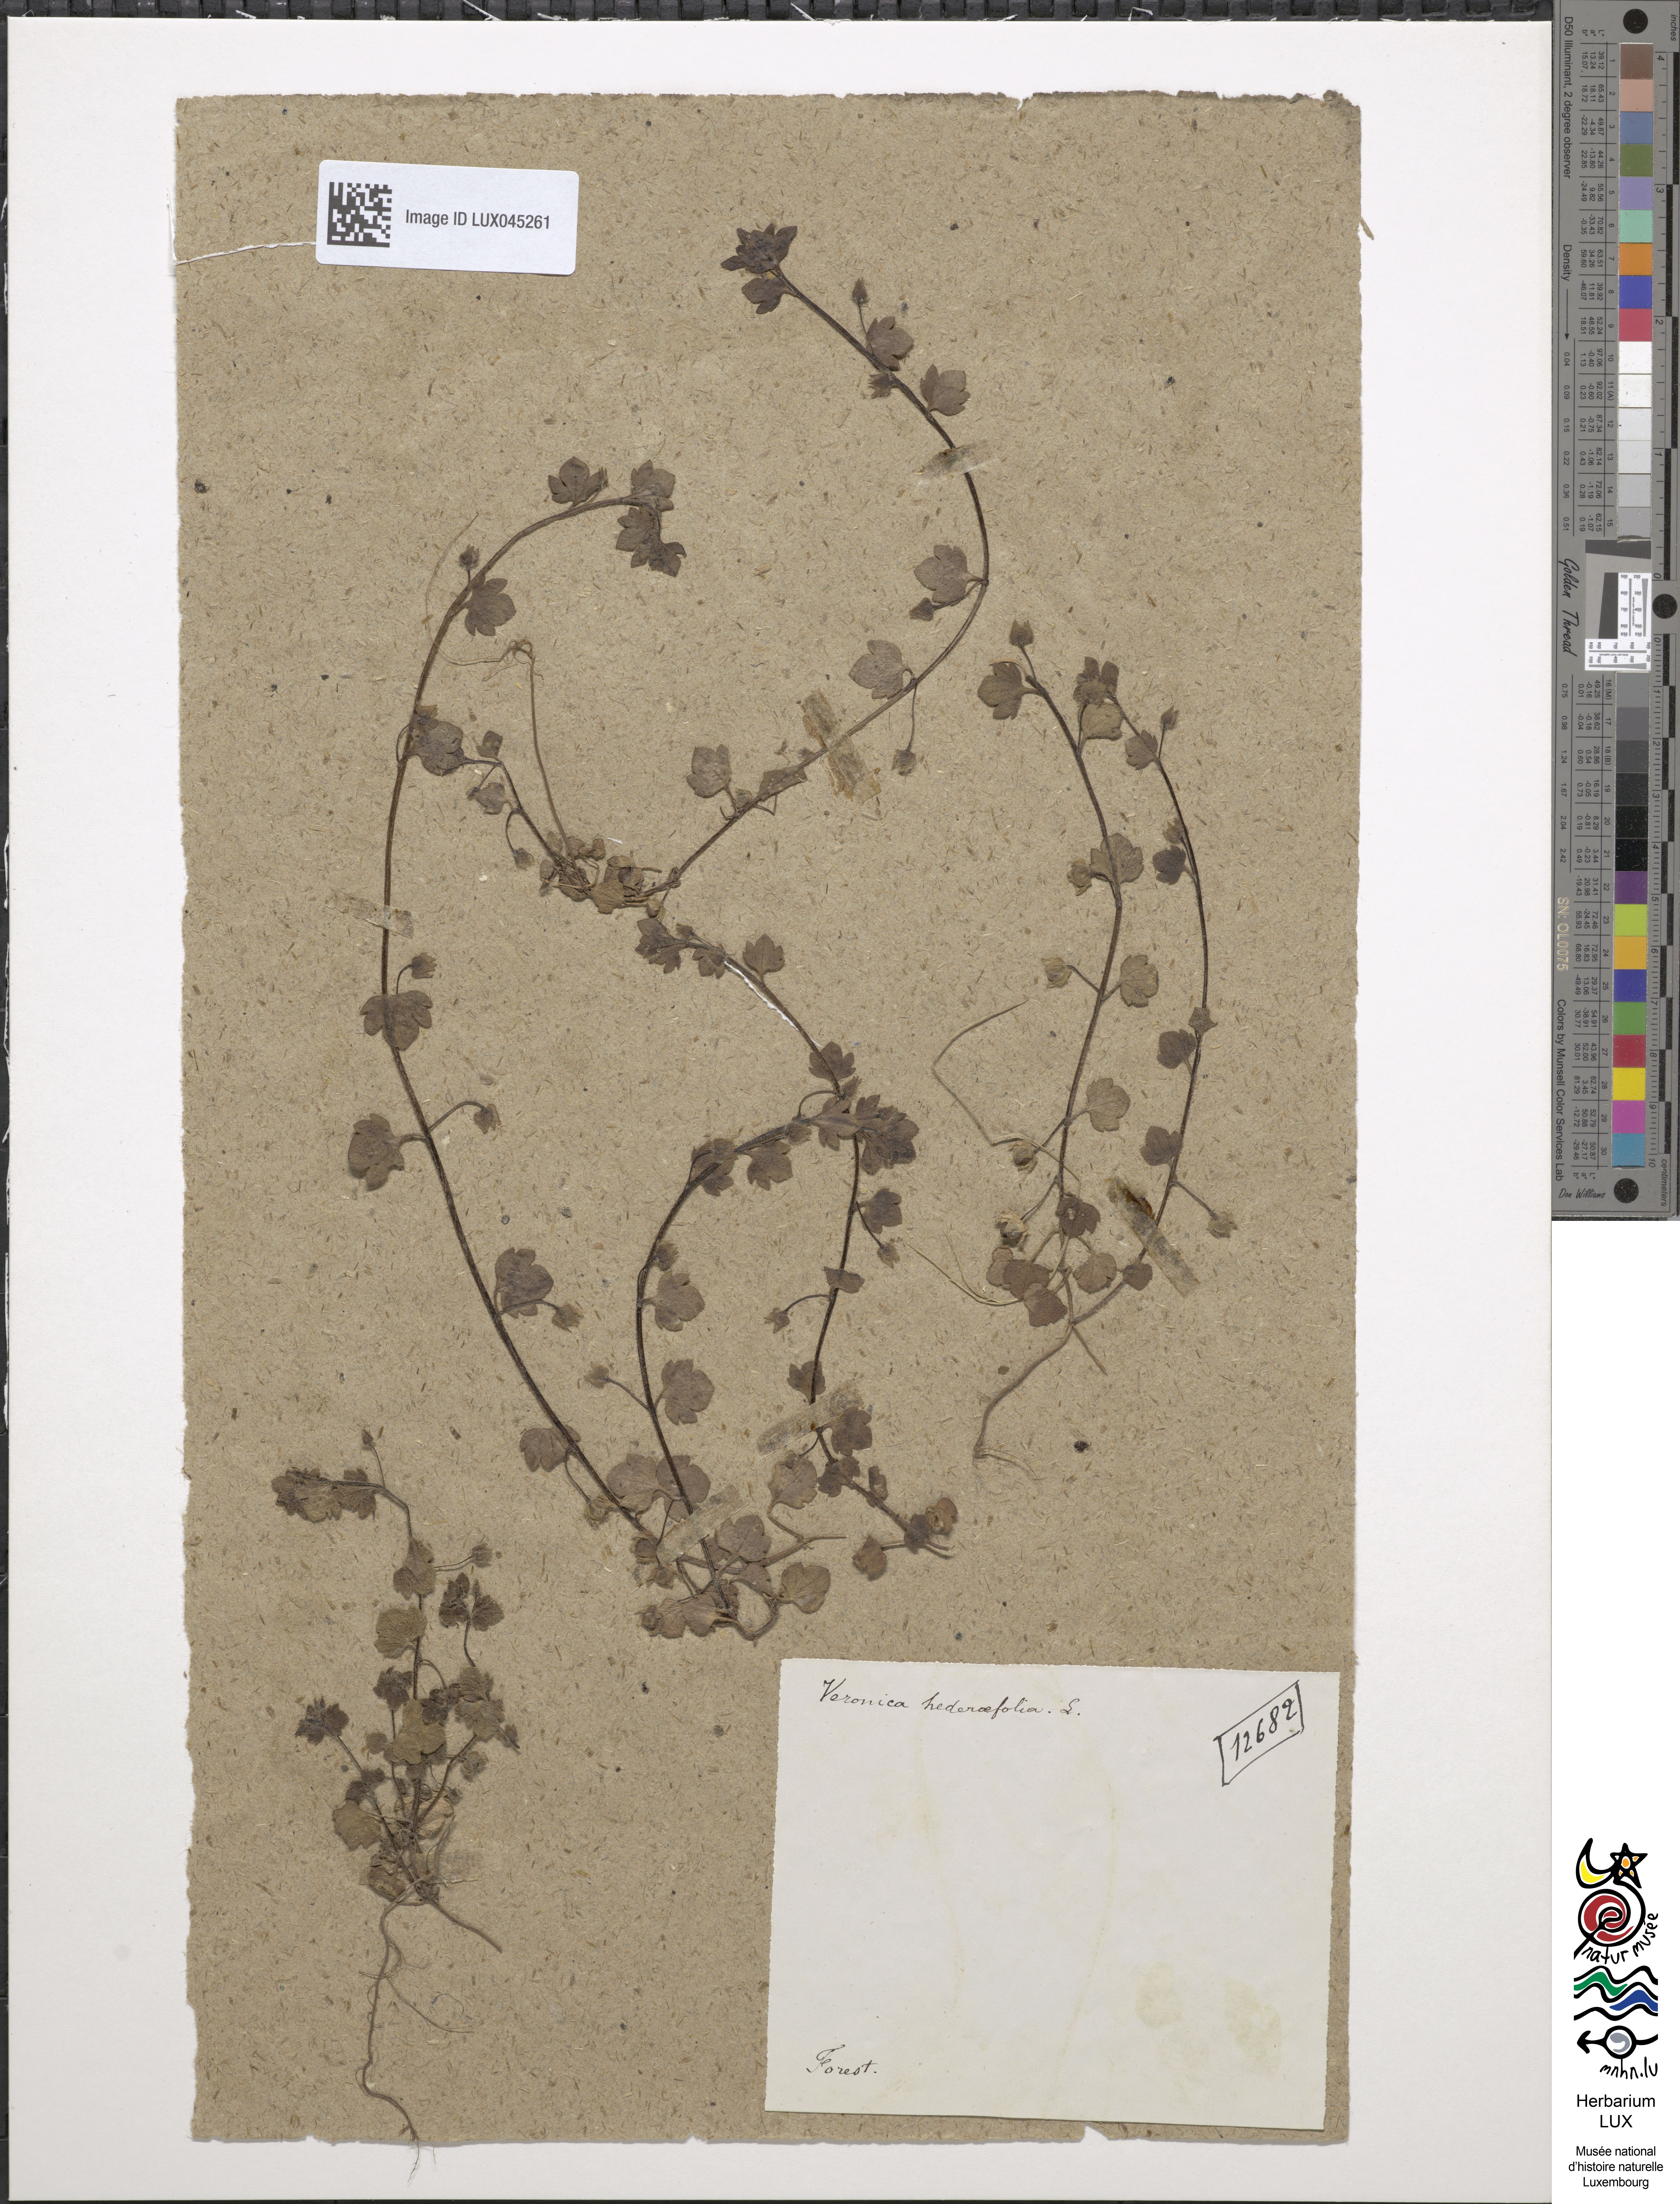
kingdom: Plantae
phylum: Tracheophyta
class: Magnoliopsida
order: Lamiales
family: Plantaginaceae
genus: Veronica
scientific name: Veronica hederifolia
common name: Ivy-leaved speedwell
